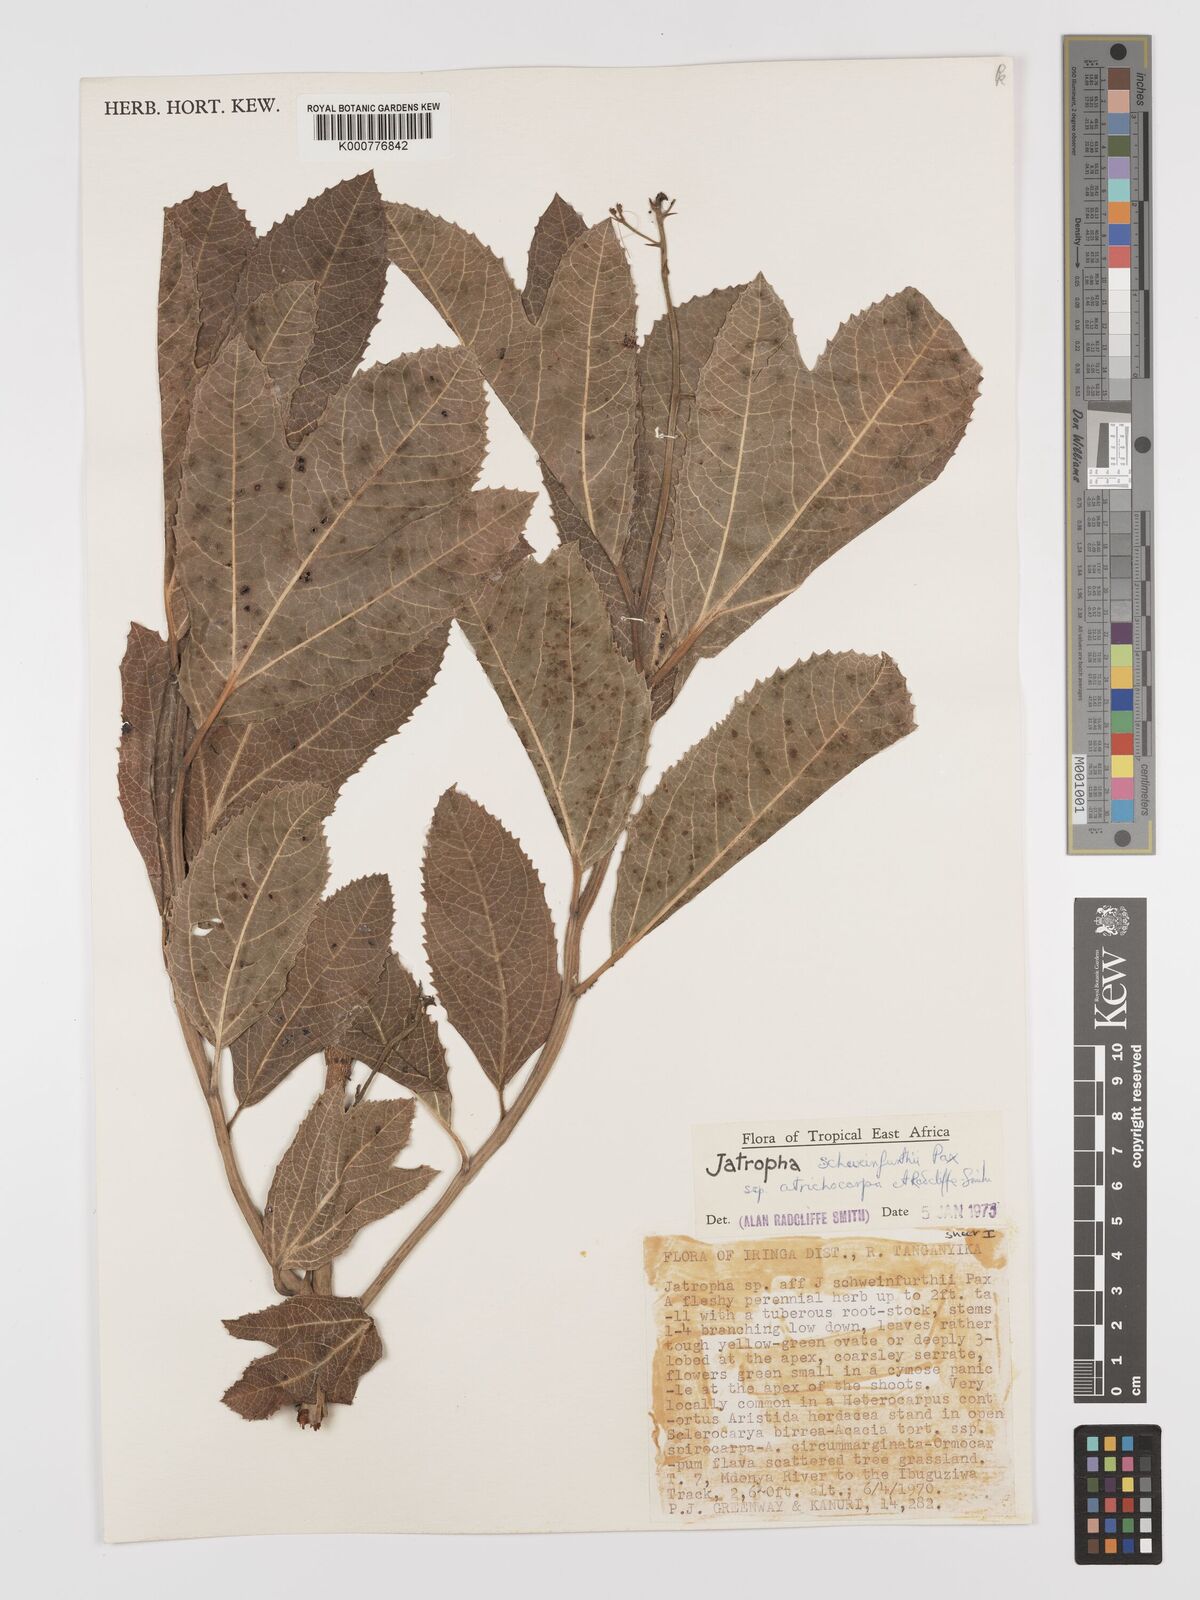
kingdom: Plantae
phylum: Tracheophyta
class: Magnoliopsida
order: Malpighiales
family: Euphorbiaceae
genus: Jatropha
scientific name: Jatropha schweinfurthii
